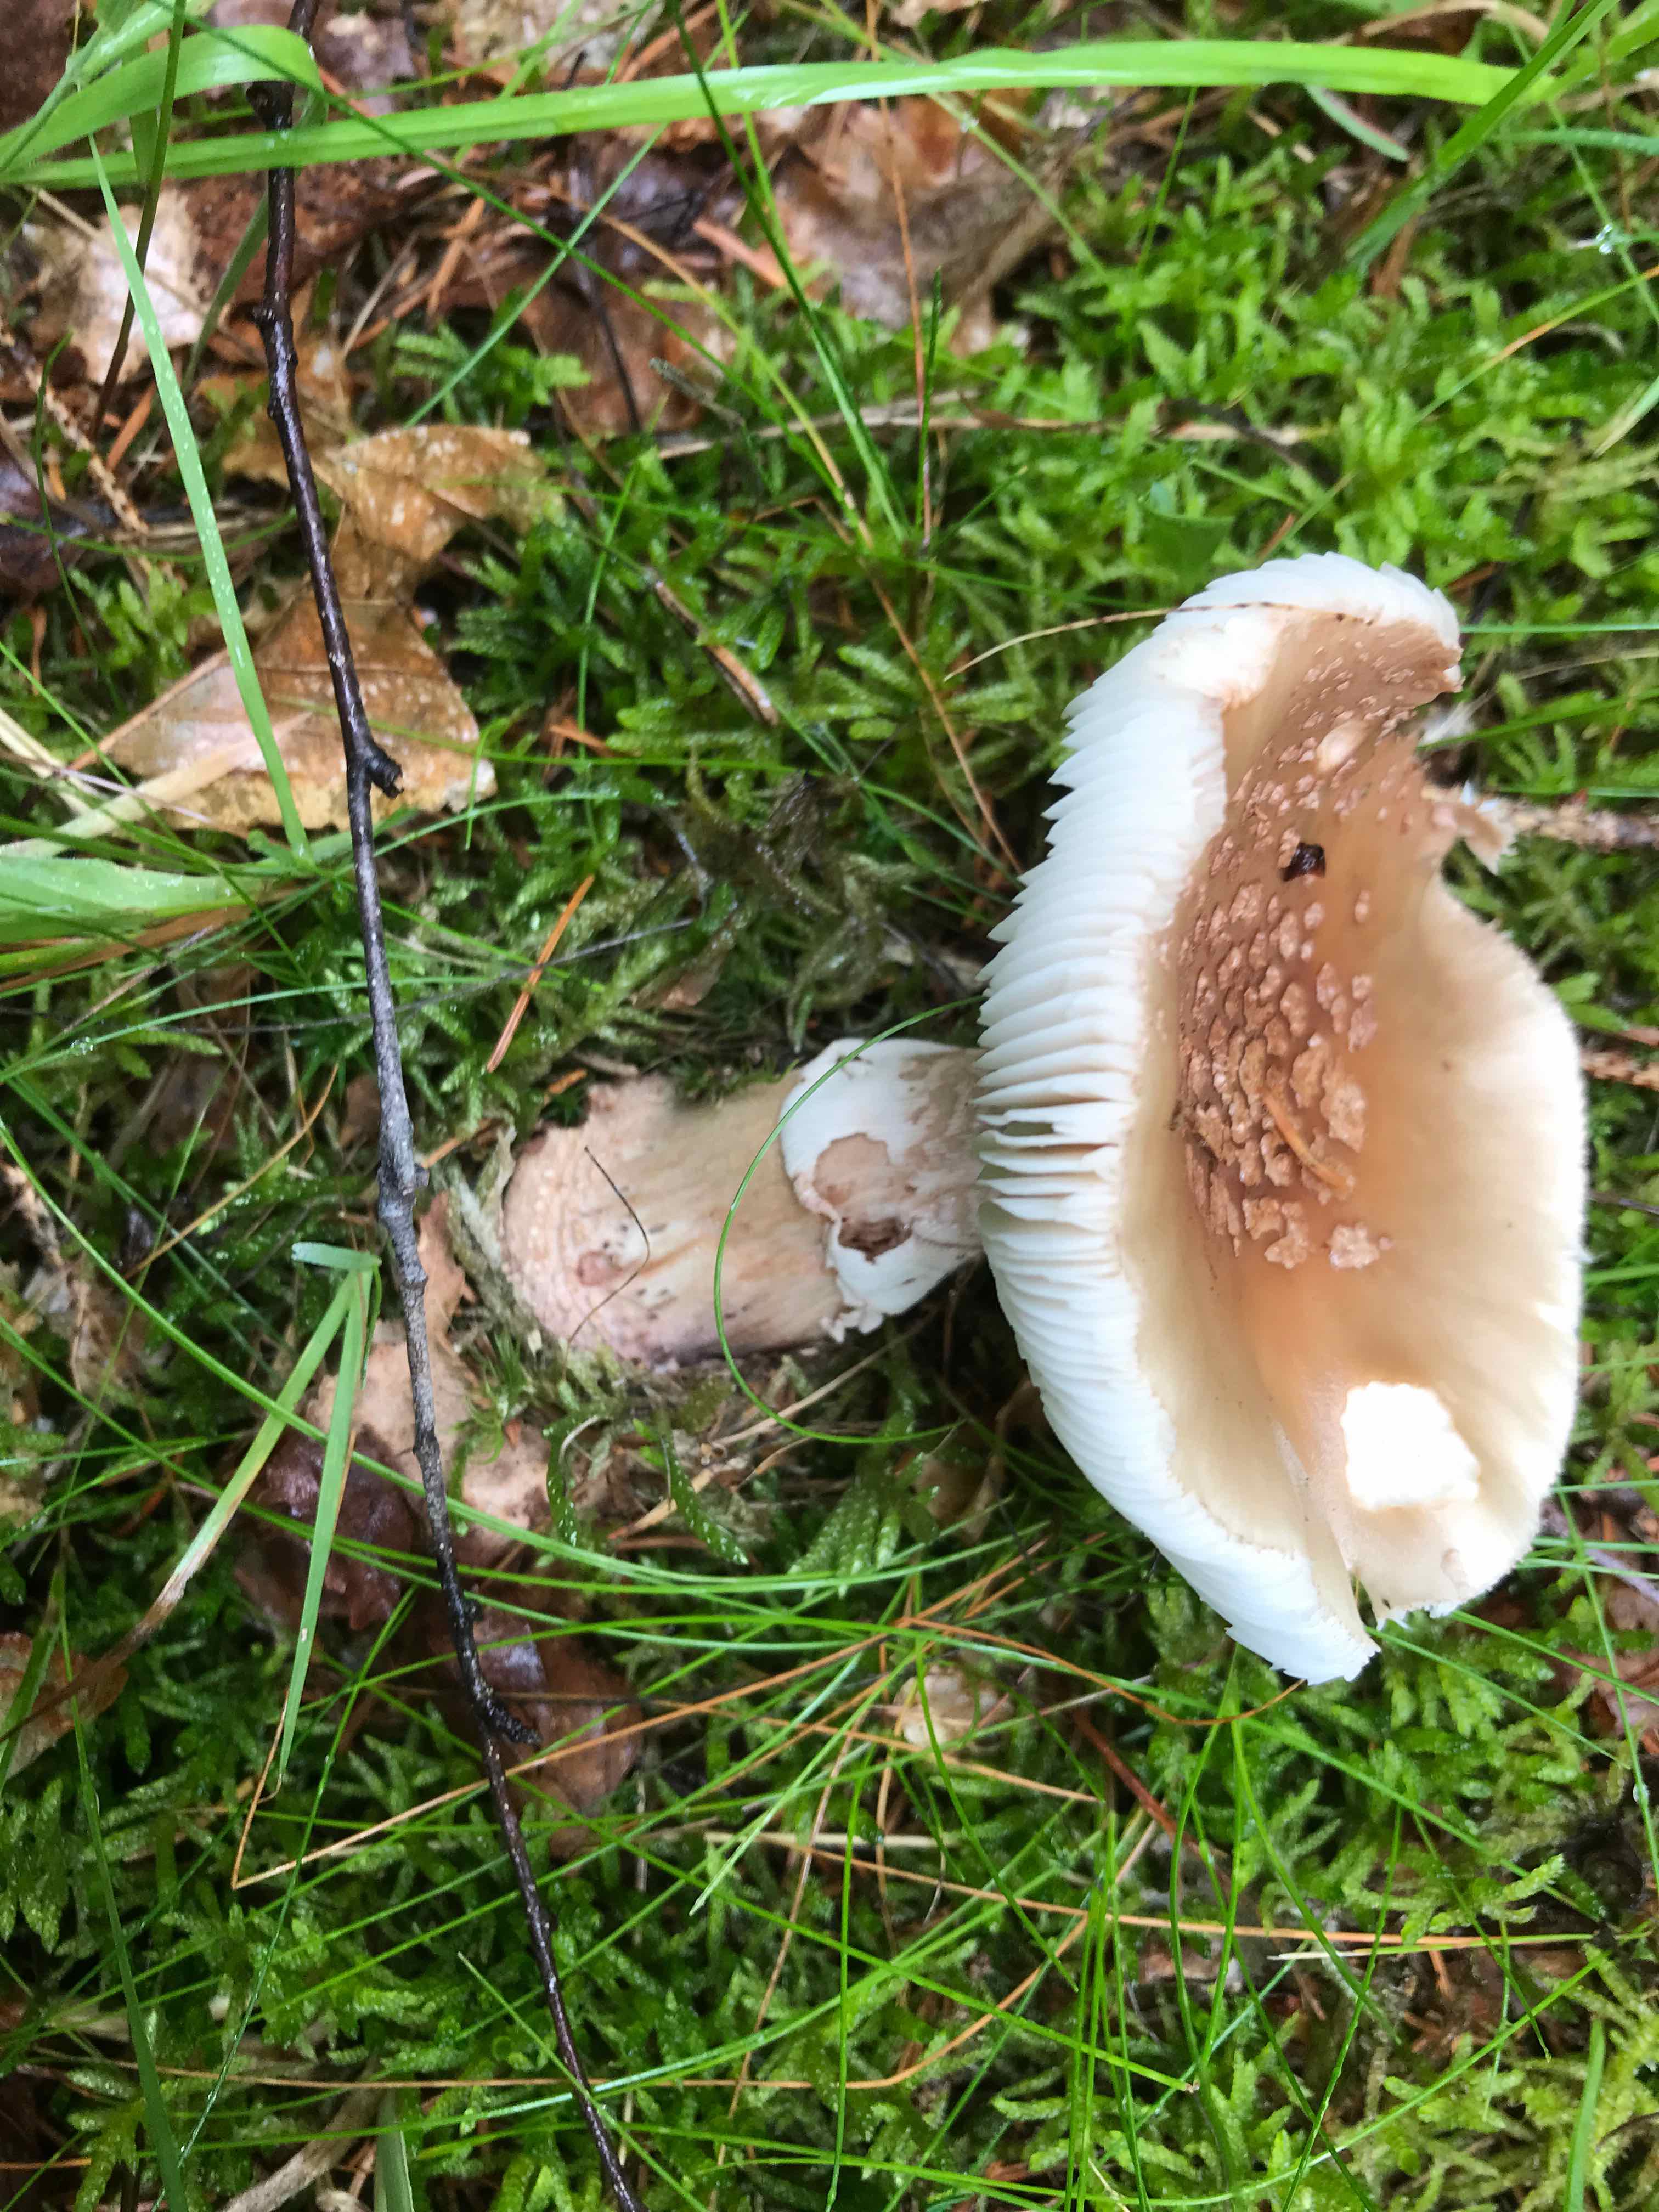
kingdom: Fungi
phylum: Basidiomycota
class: Agaricomycetes
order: Agaricales
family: Amanitaceae
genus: Amanita
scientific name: Amanita rubescens
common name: rødmende fluesvamp
